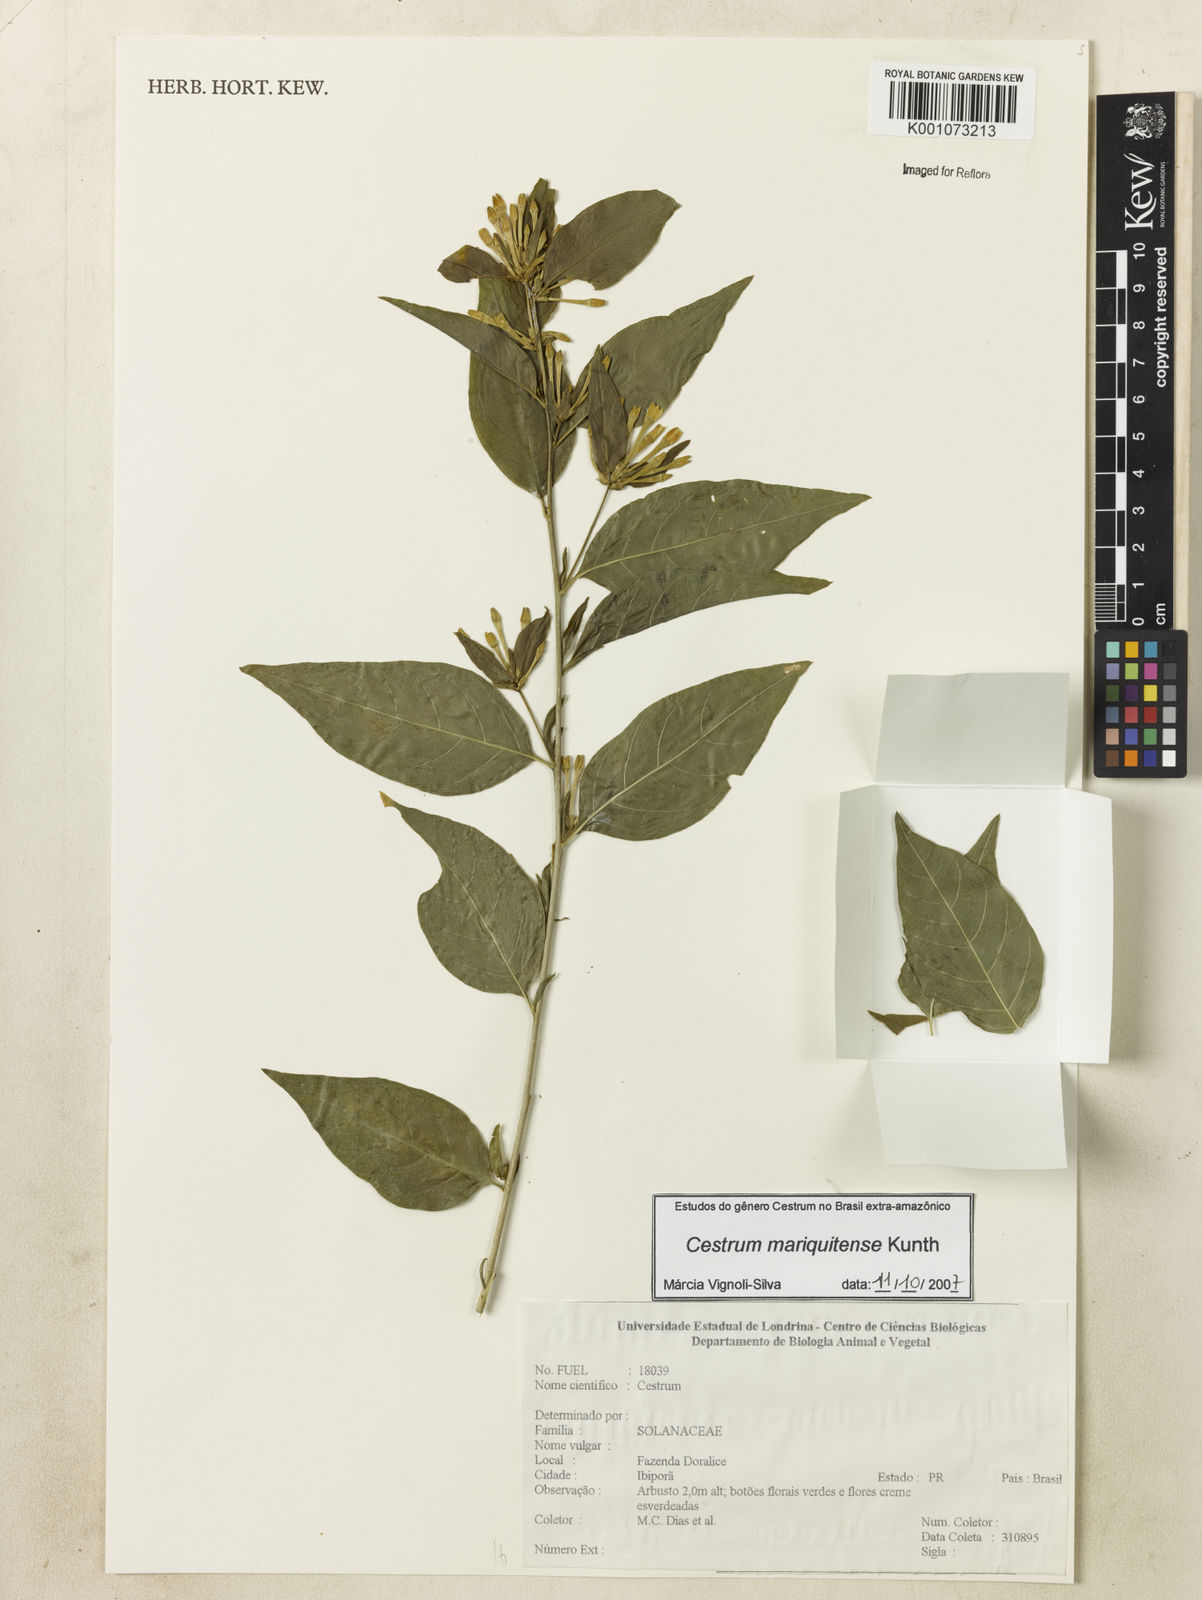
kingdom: Plantae
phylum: Tracheophyta
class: Magnoliopsida
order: Solanales
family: Solanaceae
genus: Cestrum
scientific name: Cestrum mariquitense
